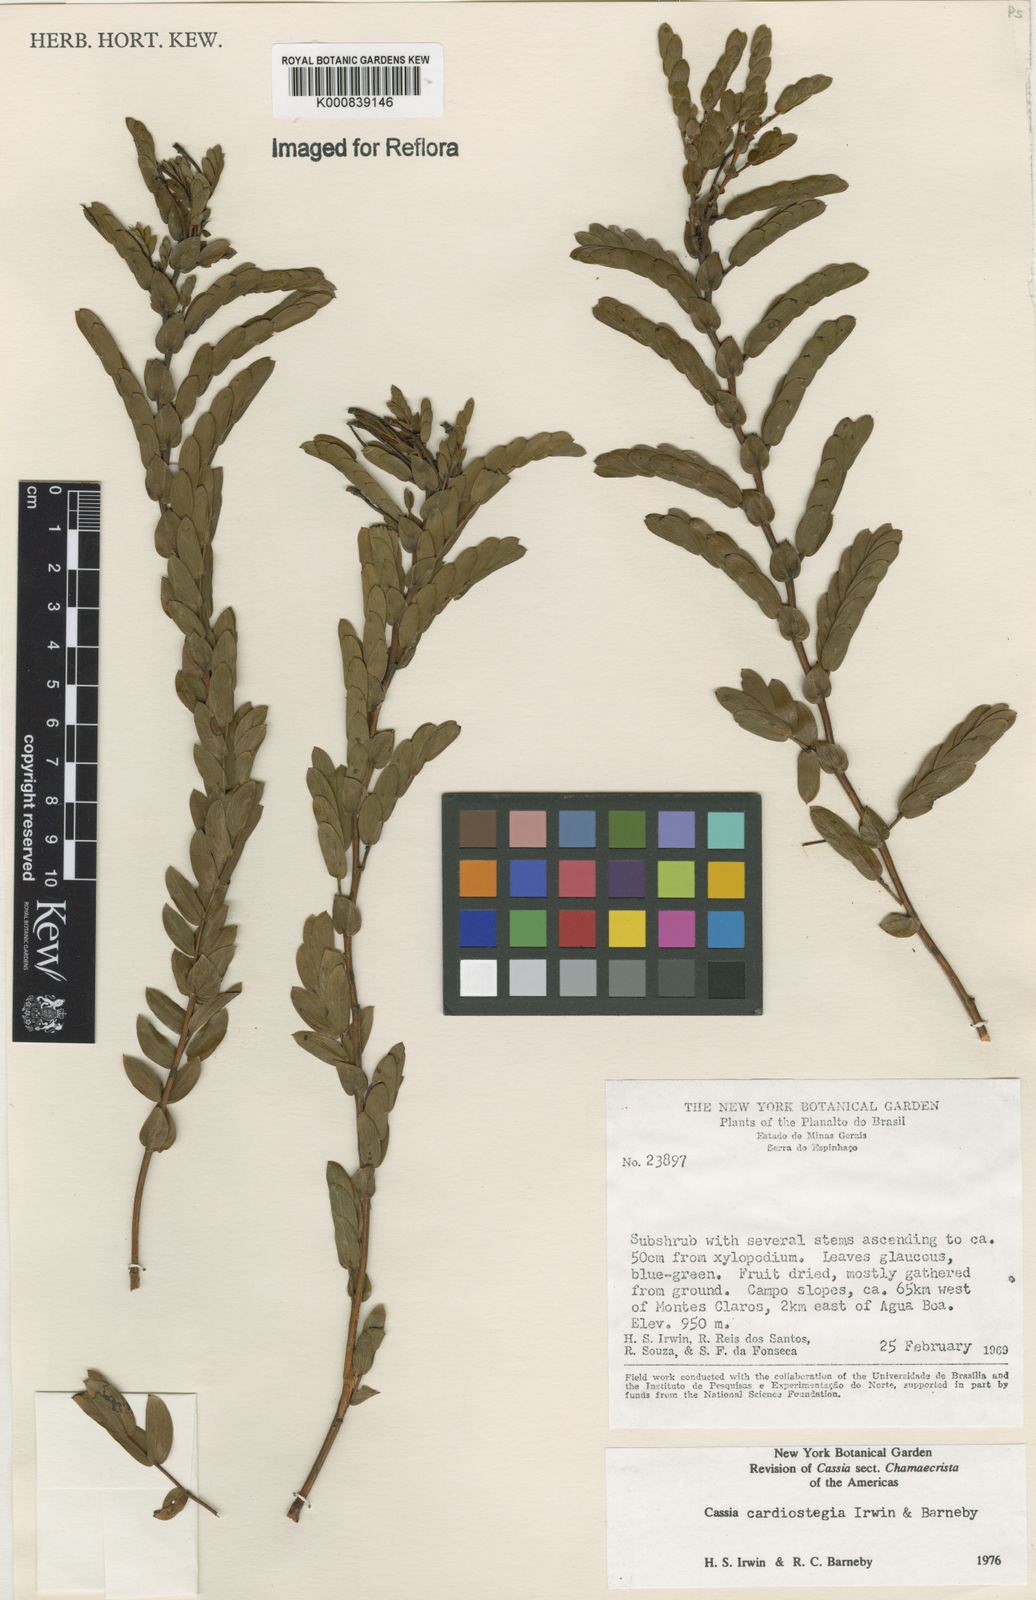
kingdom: Plantae
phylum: Tracheophyta
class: Magnoliopsida
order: Fabales
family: Fabaceae
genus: Chamaecrista
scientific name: Chamaecrista cardiostegia
